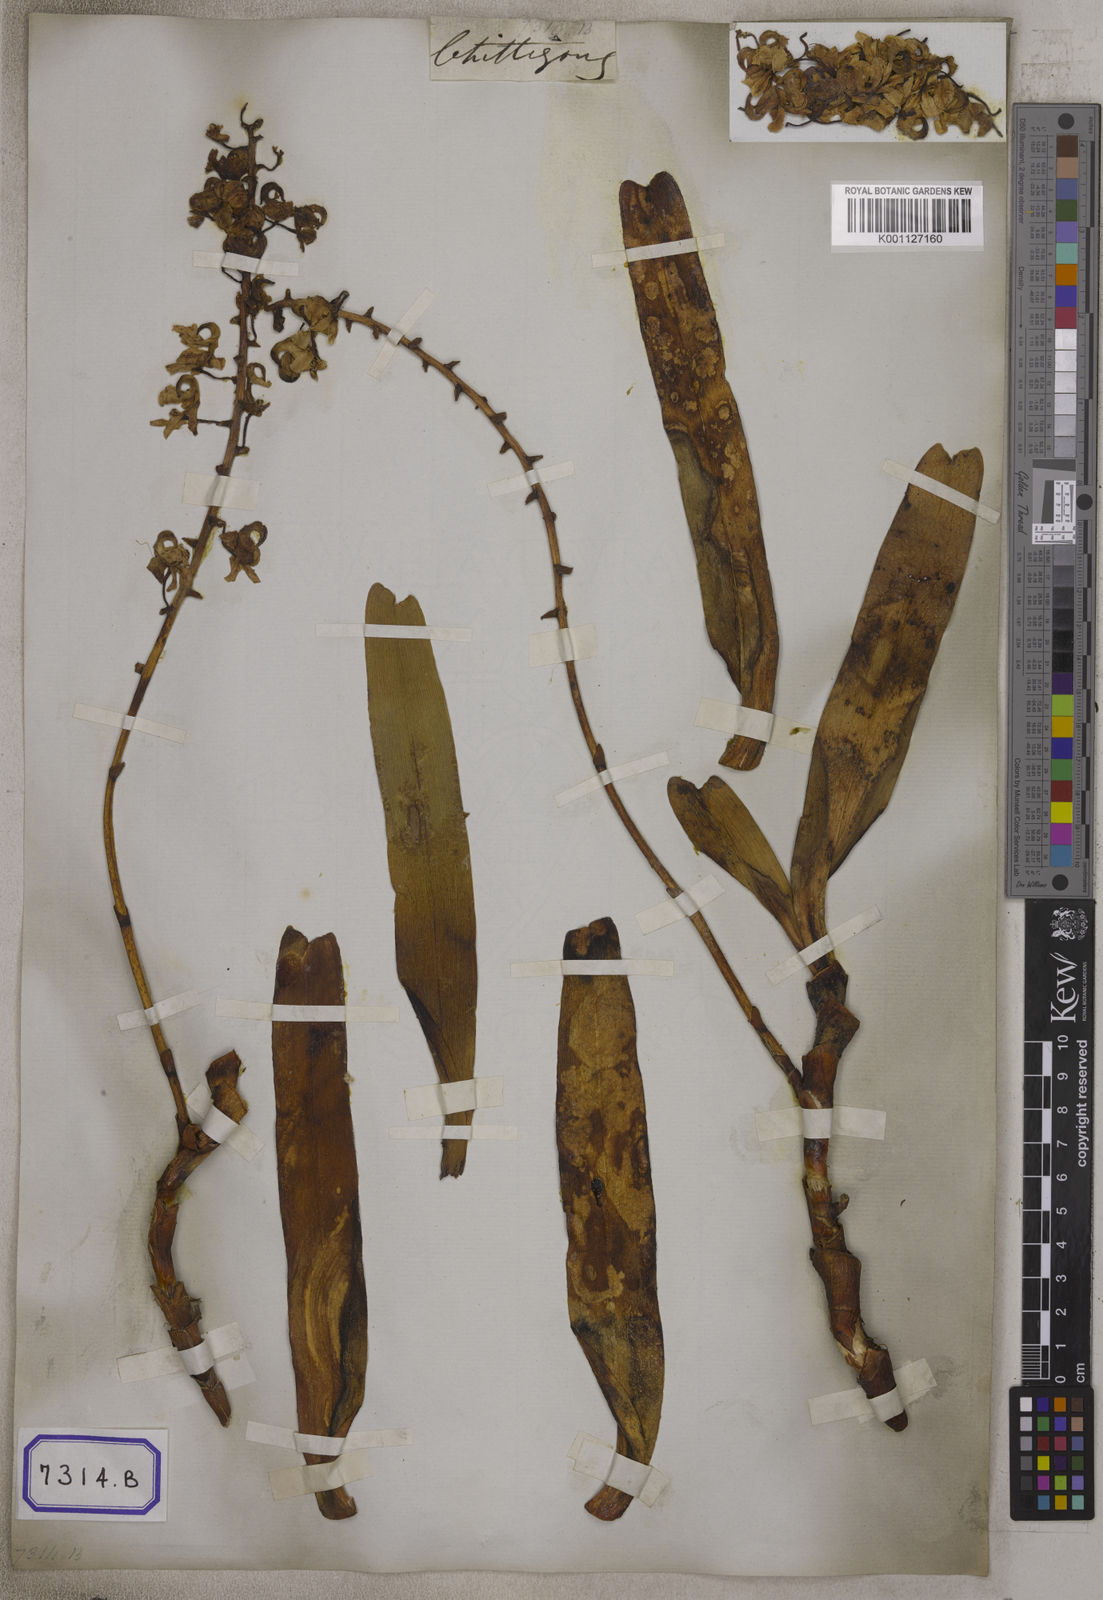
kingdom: Plantae
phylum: Tracheophyta
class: Liliopsida
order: Asparagales
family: Orchidaceae
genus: Aerides
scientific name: Aerides odorata
